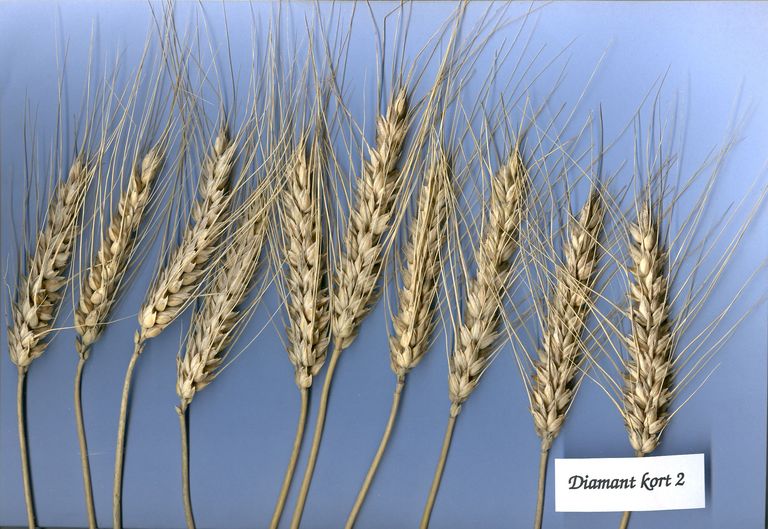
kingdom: Plantae
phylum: Tracheophyta
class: Liliopsida
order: Poales
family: Poaceae
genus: Triticum
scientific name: Triticum aestivum
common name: Common wheat
